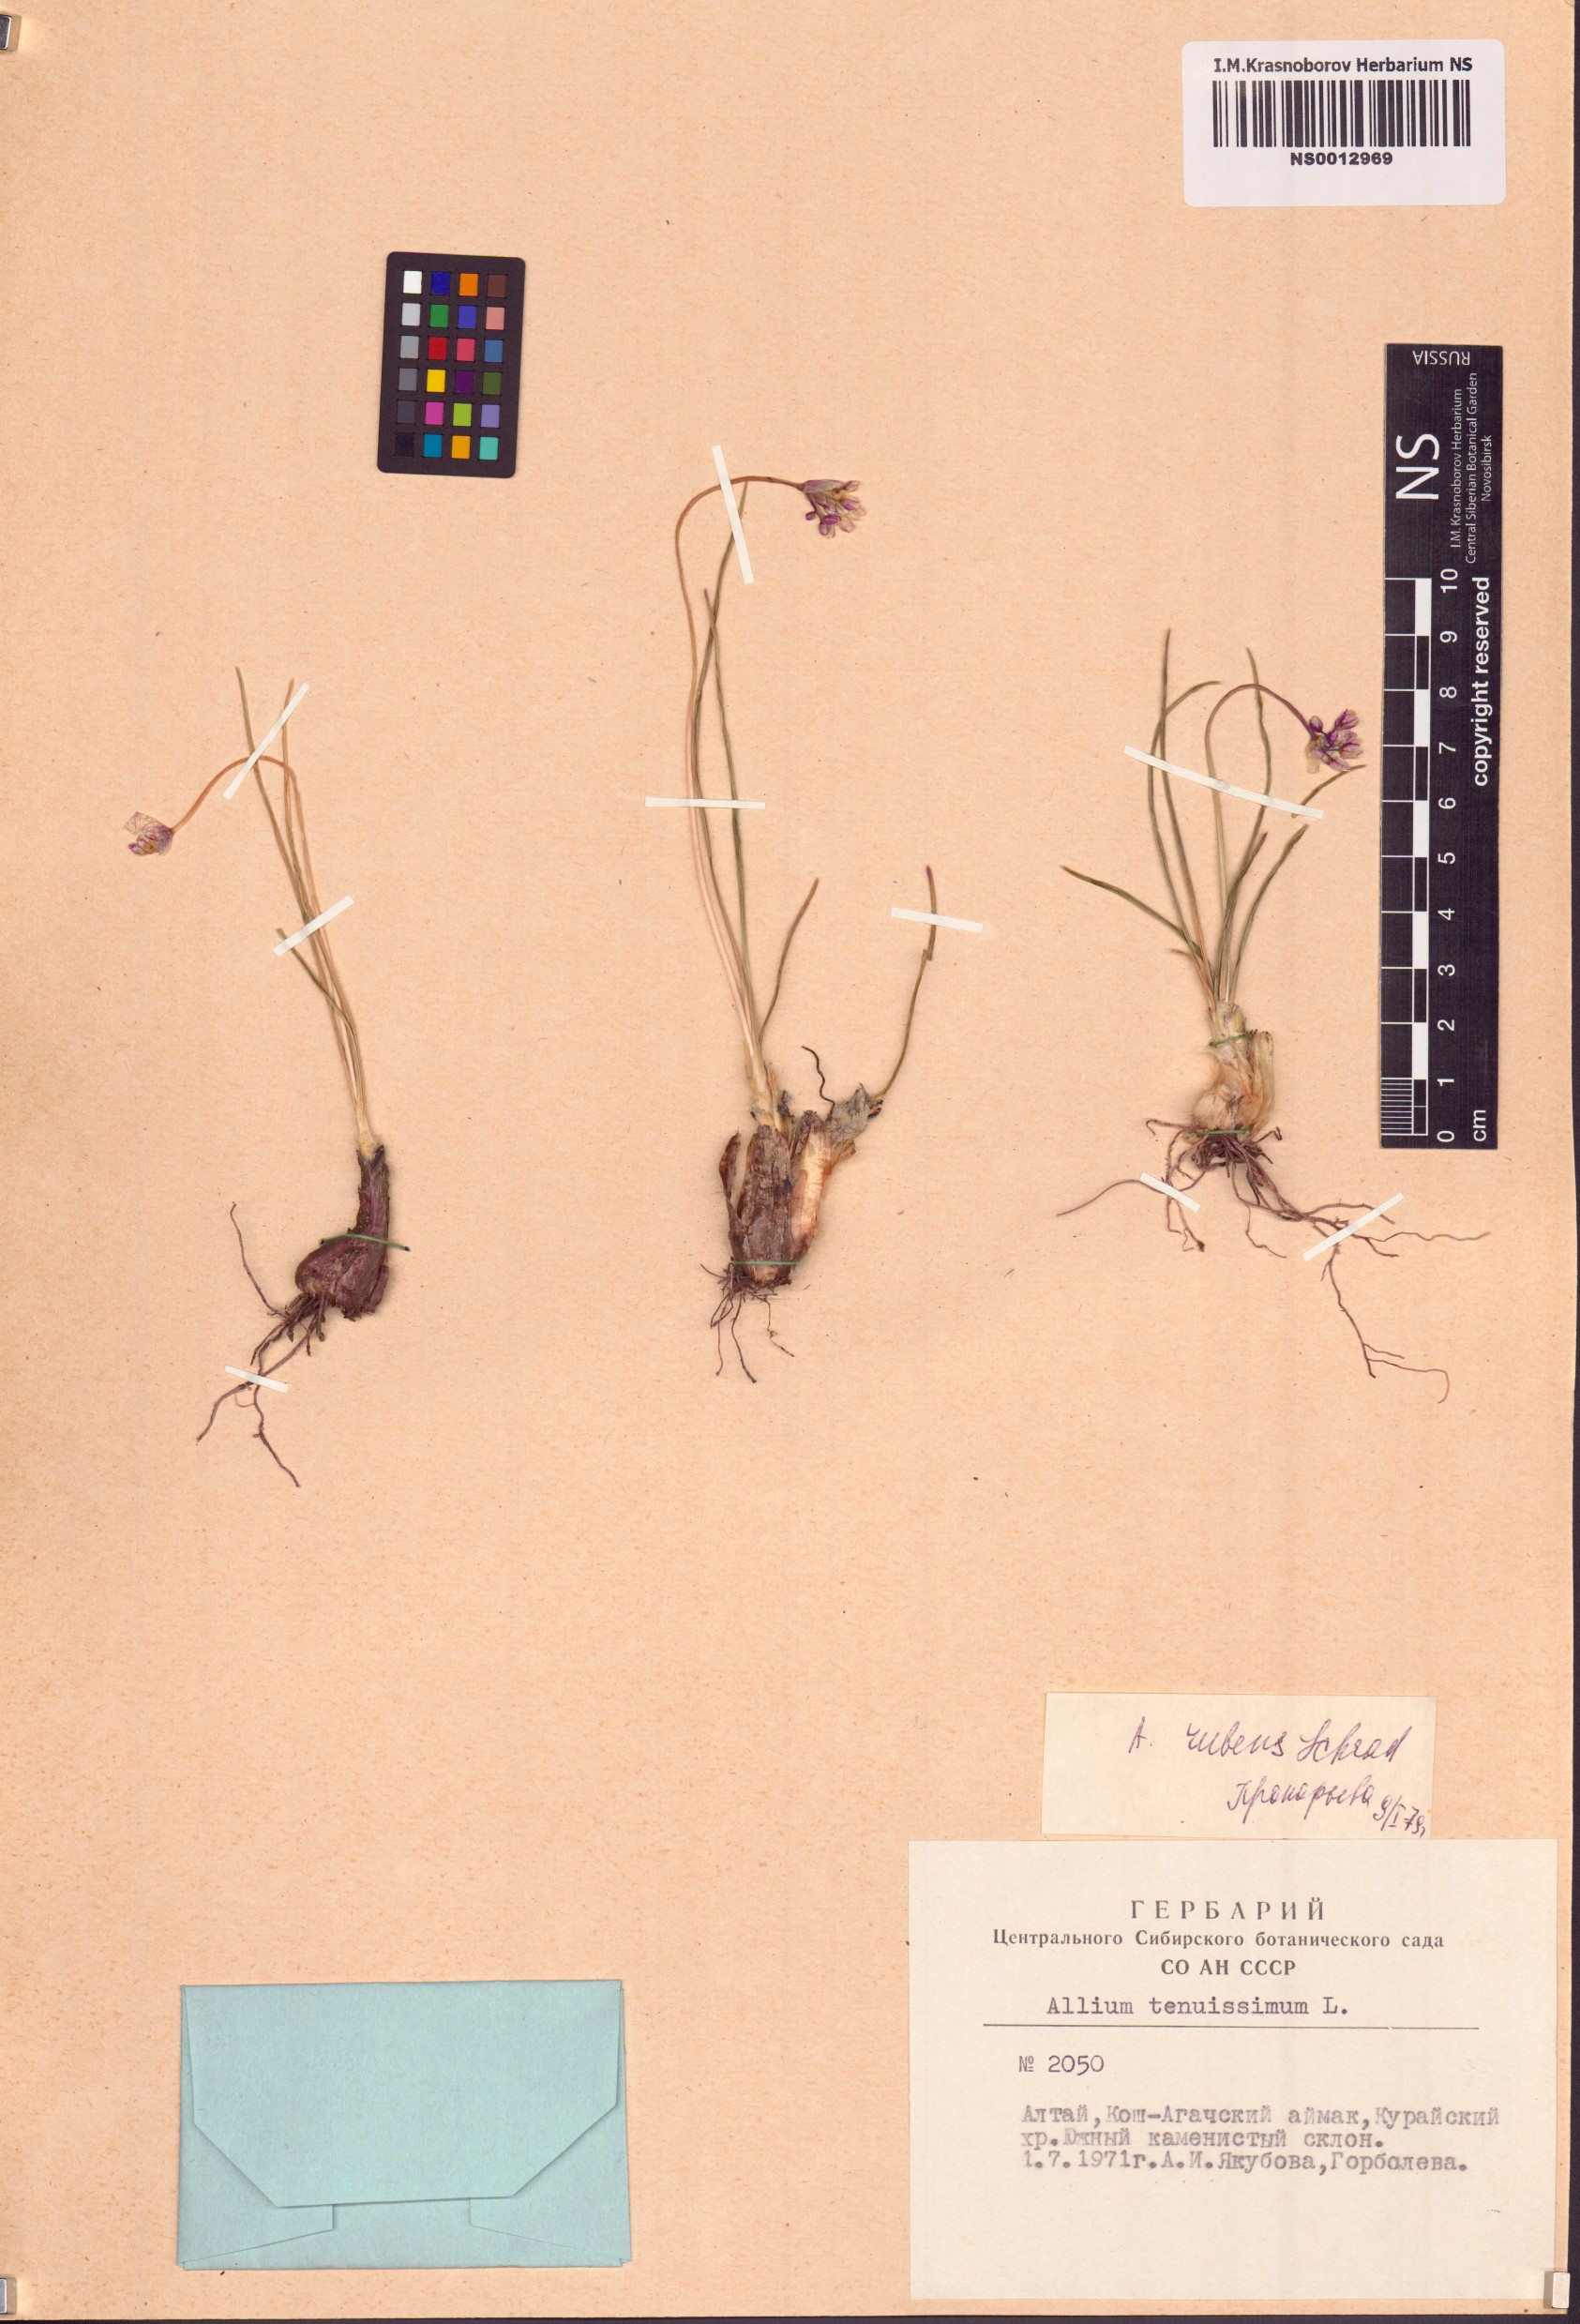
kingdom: Plantae
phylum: Tracheophyta
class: Liliopsida
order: Asparagales
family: Amaryllidaceae
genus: Allium
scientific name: Allium rubens
